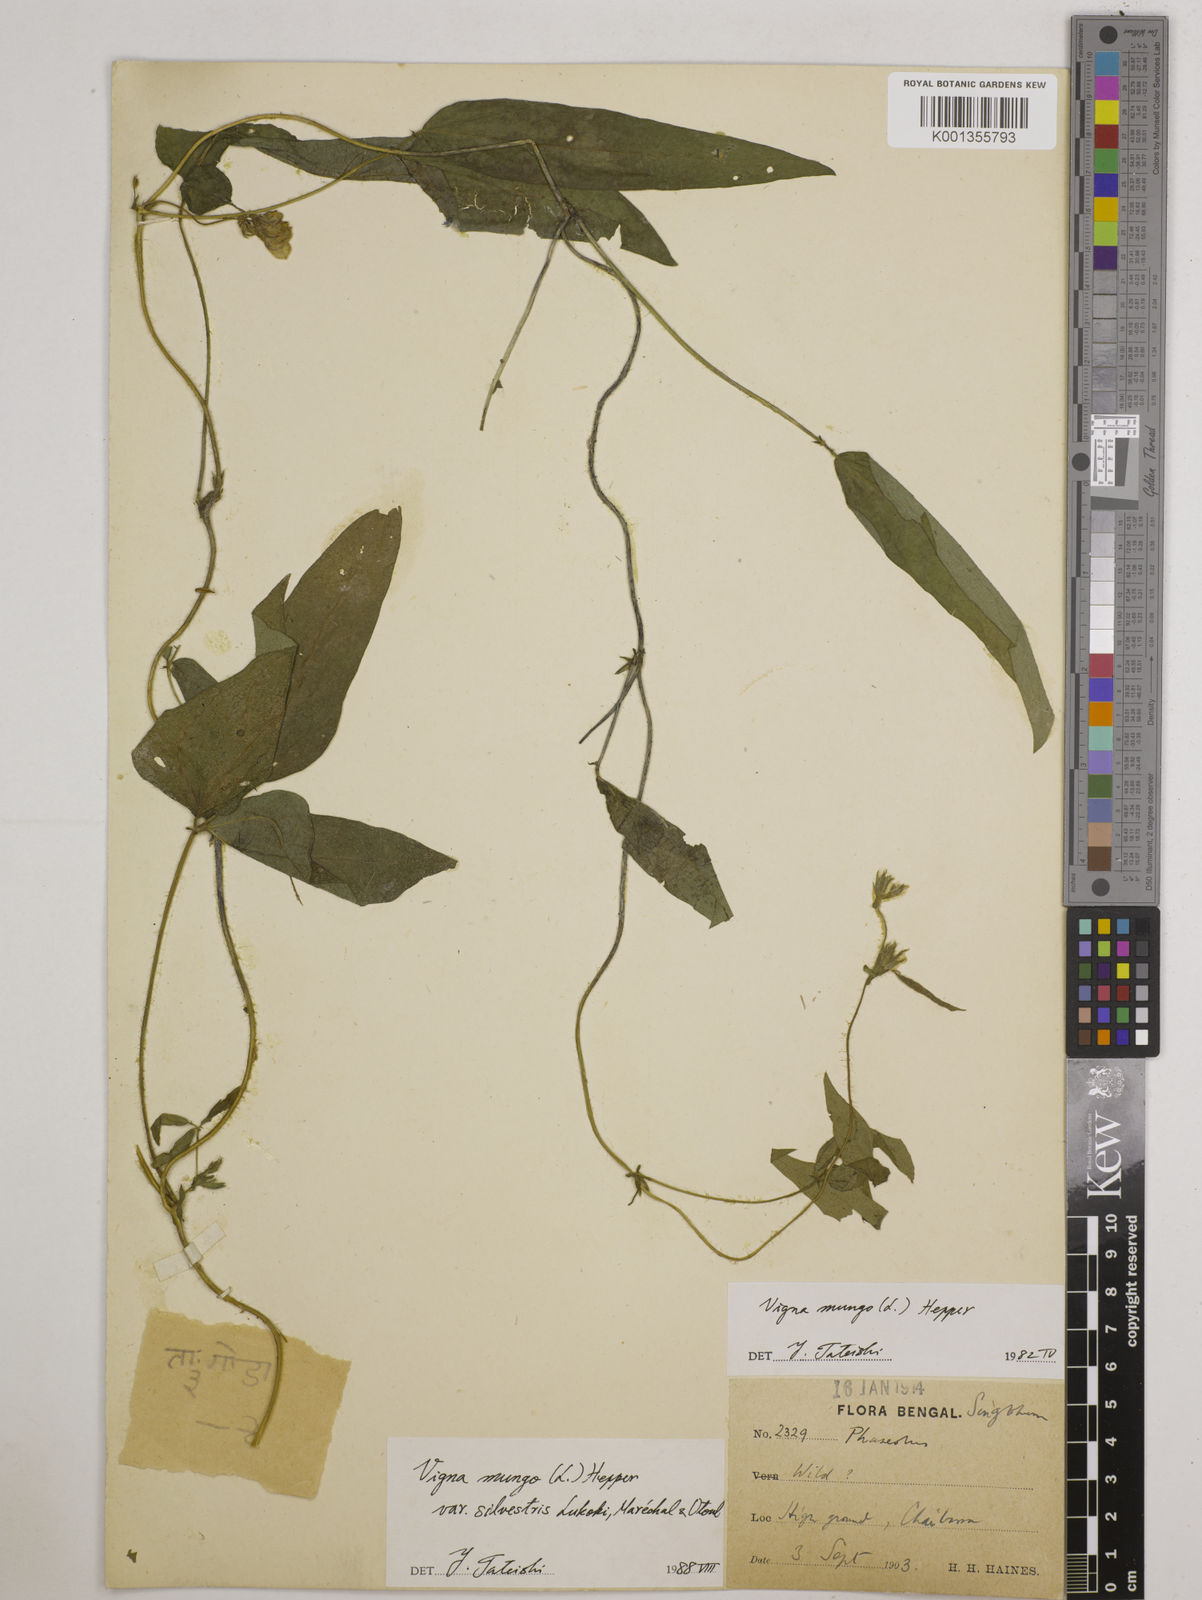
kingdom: Plantae
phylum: Tracheophyta
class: Magnoliopsida
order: Fabales
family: Fabaceae
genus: Vigna
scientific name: Vigna mungo
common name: Black gram
